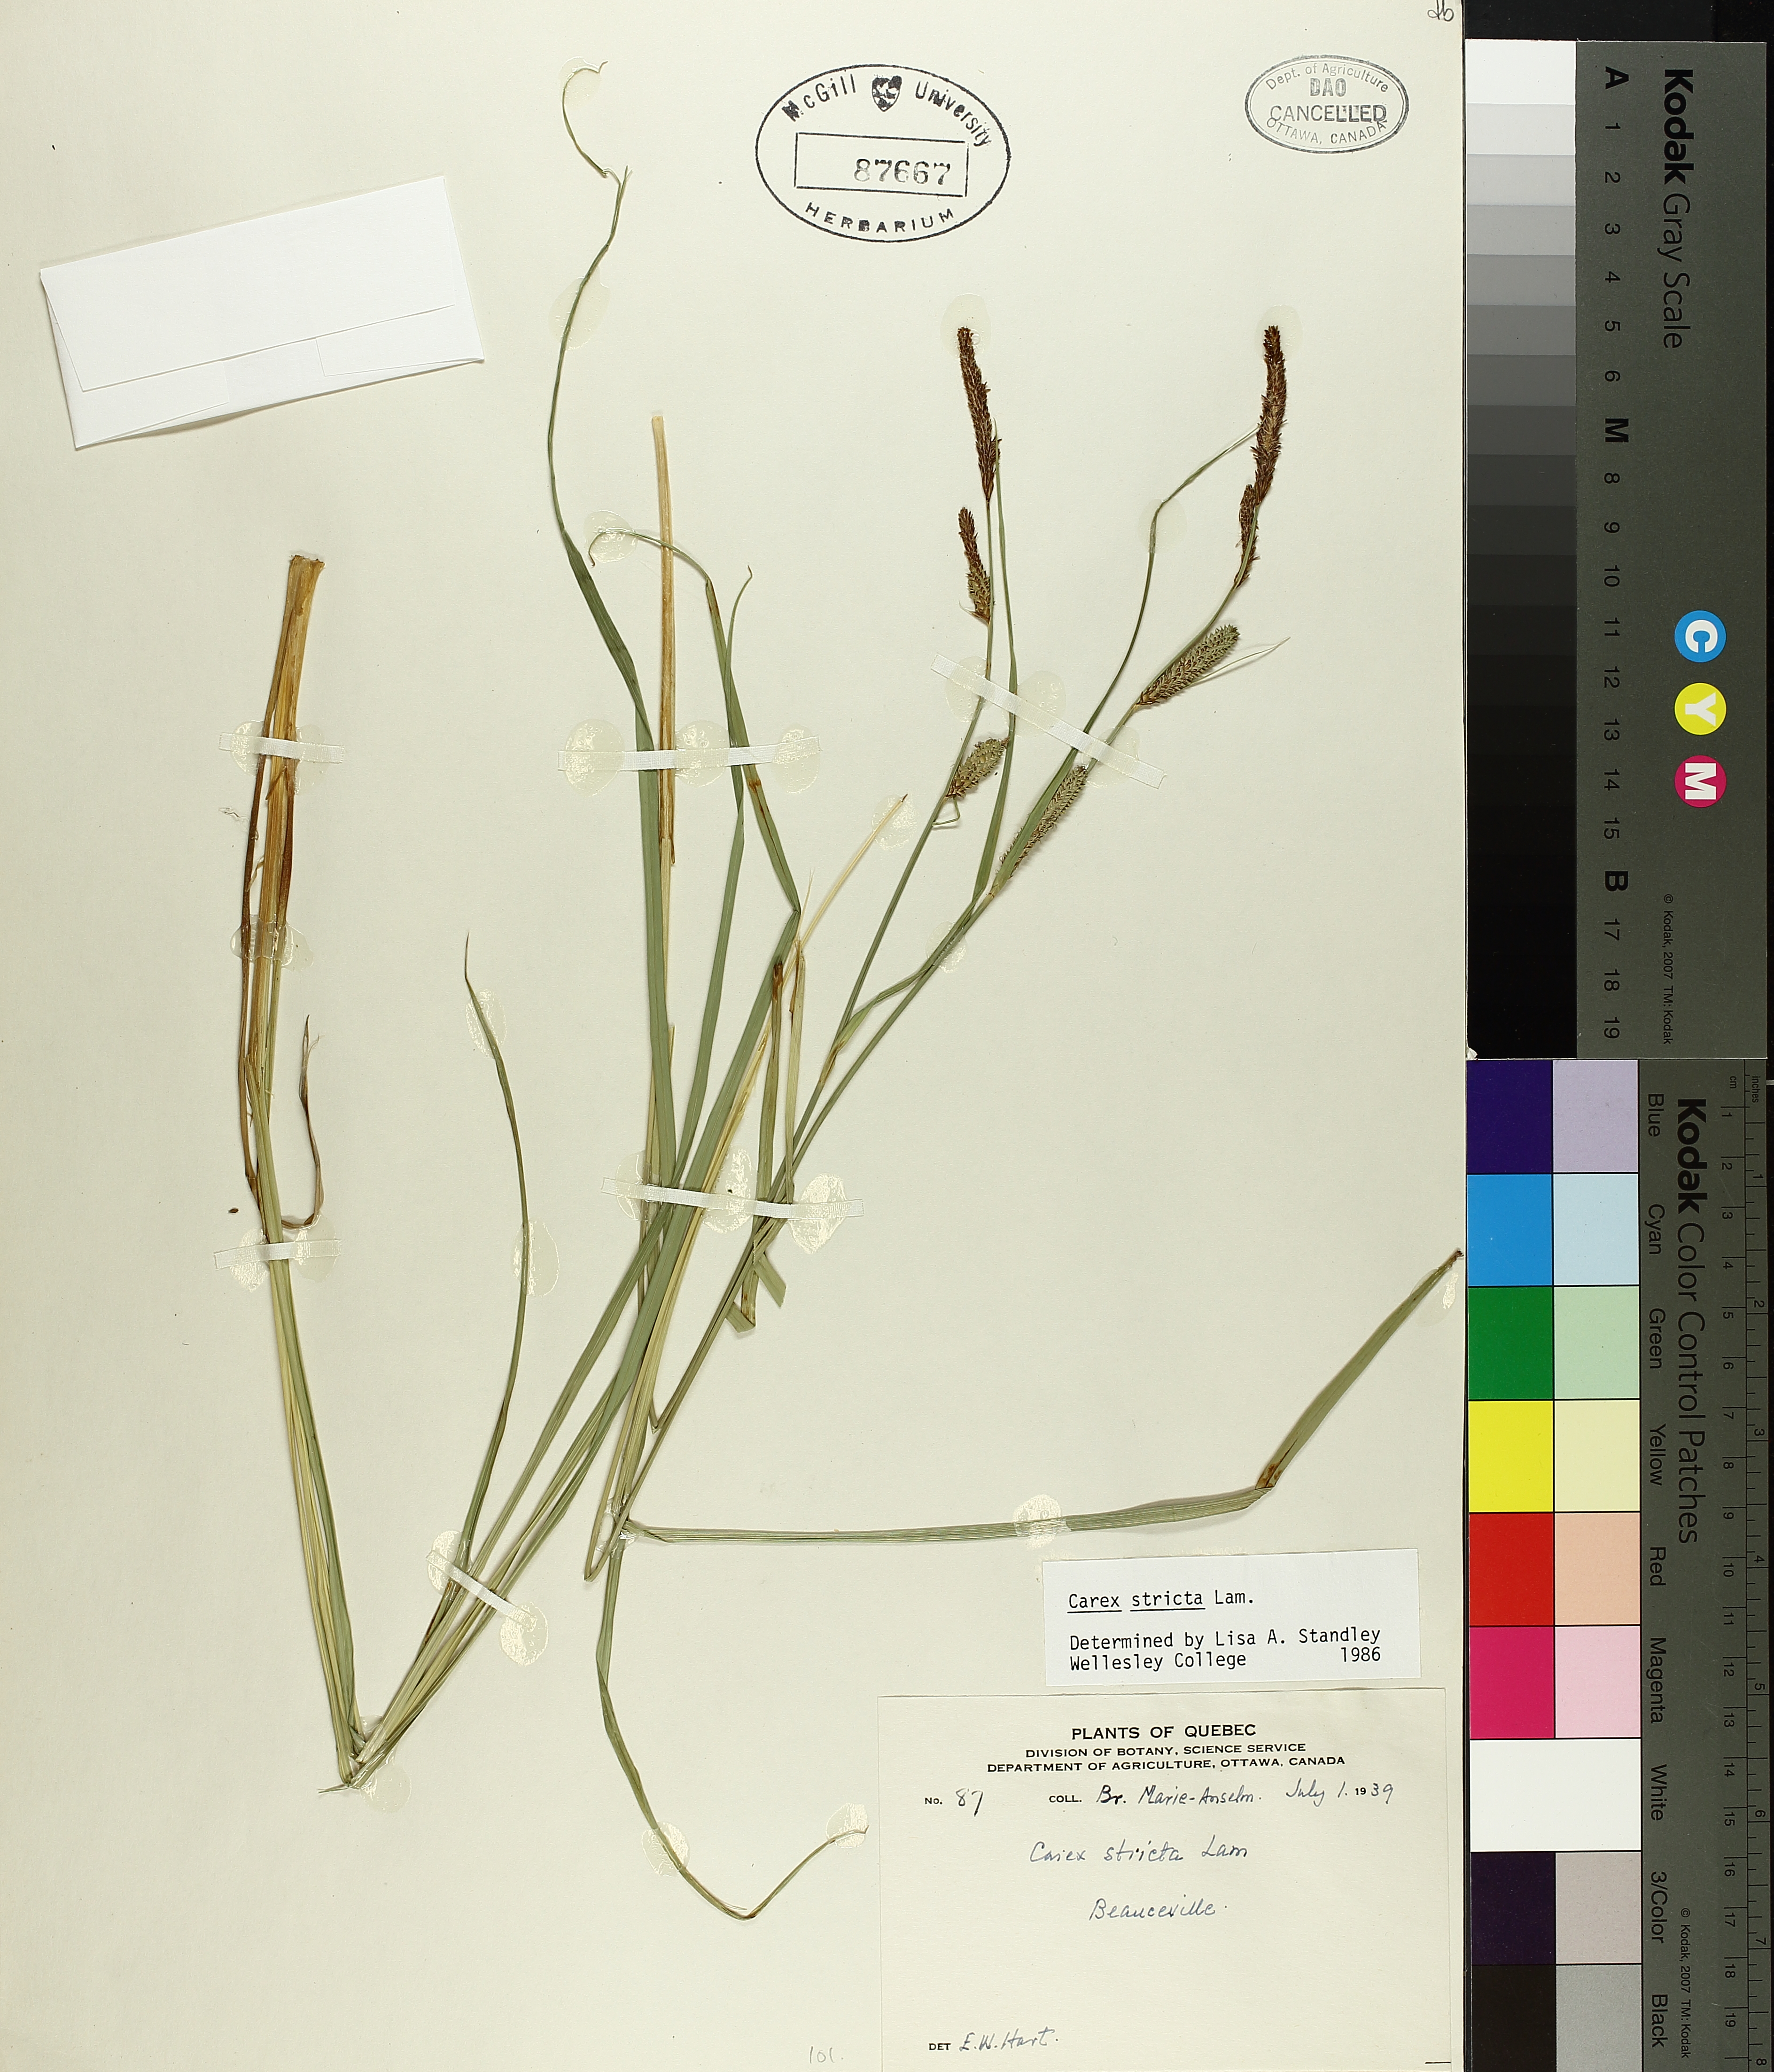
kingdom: Plantae
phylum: Tracheophyta
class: Liliopsida
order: Poales
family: Cyperaceae
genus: Carex
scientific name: Carex stricta
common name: Hummock sedge
